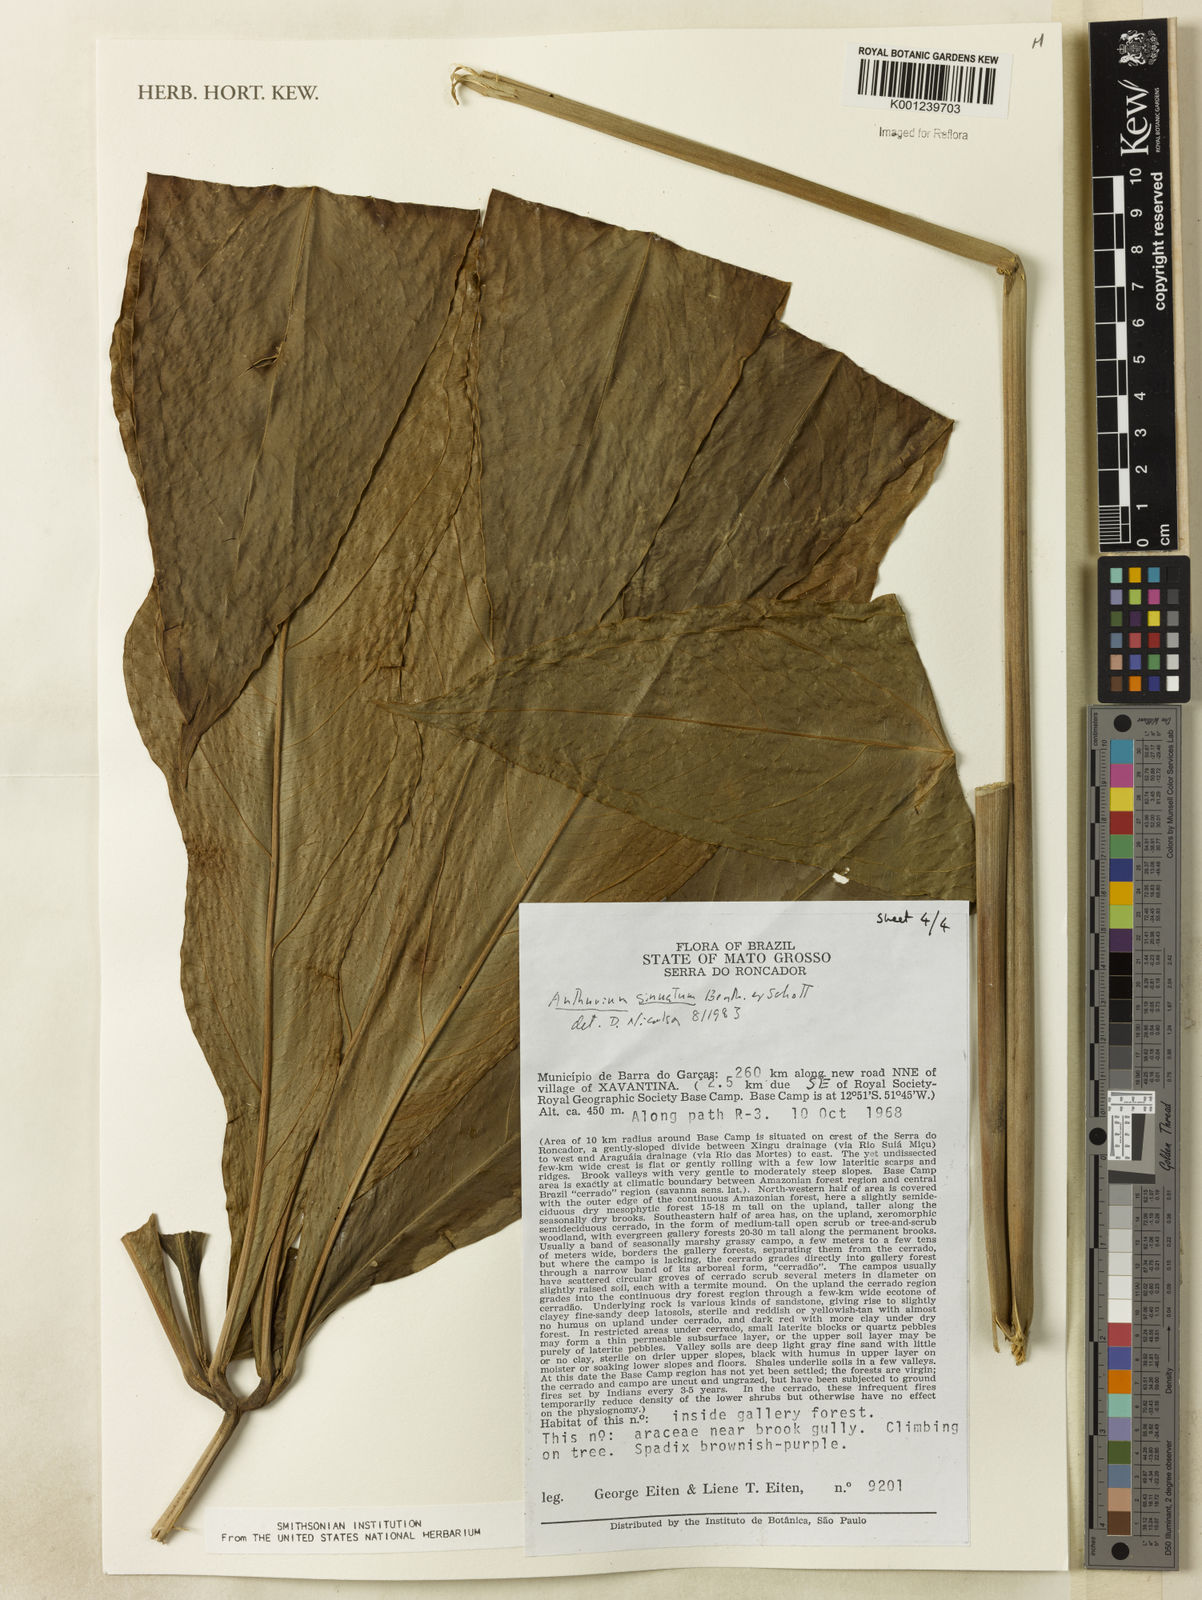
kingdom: Plantae
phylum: Tracheophyta
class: Liliopsida
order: Alismatales
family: Araceae
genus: Anthurium
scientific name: Anthurium sinuatum
